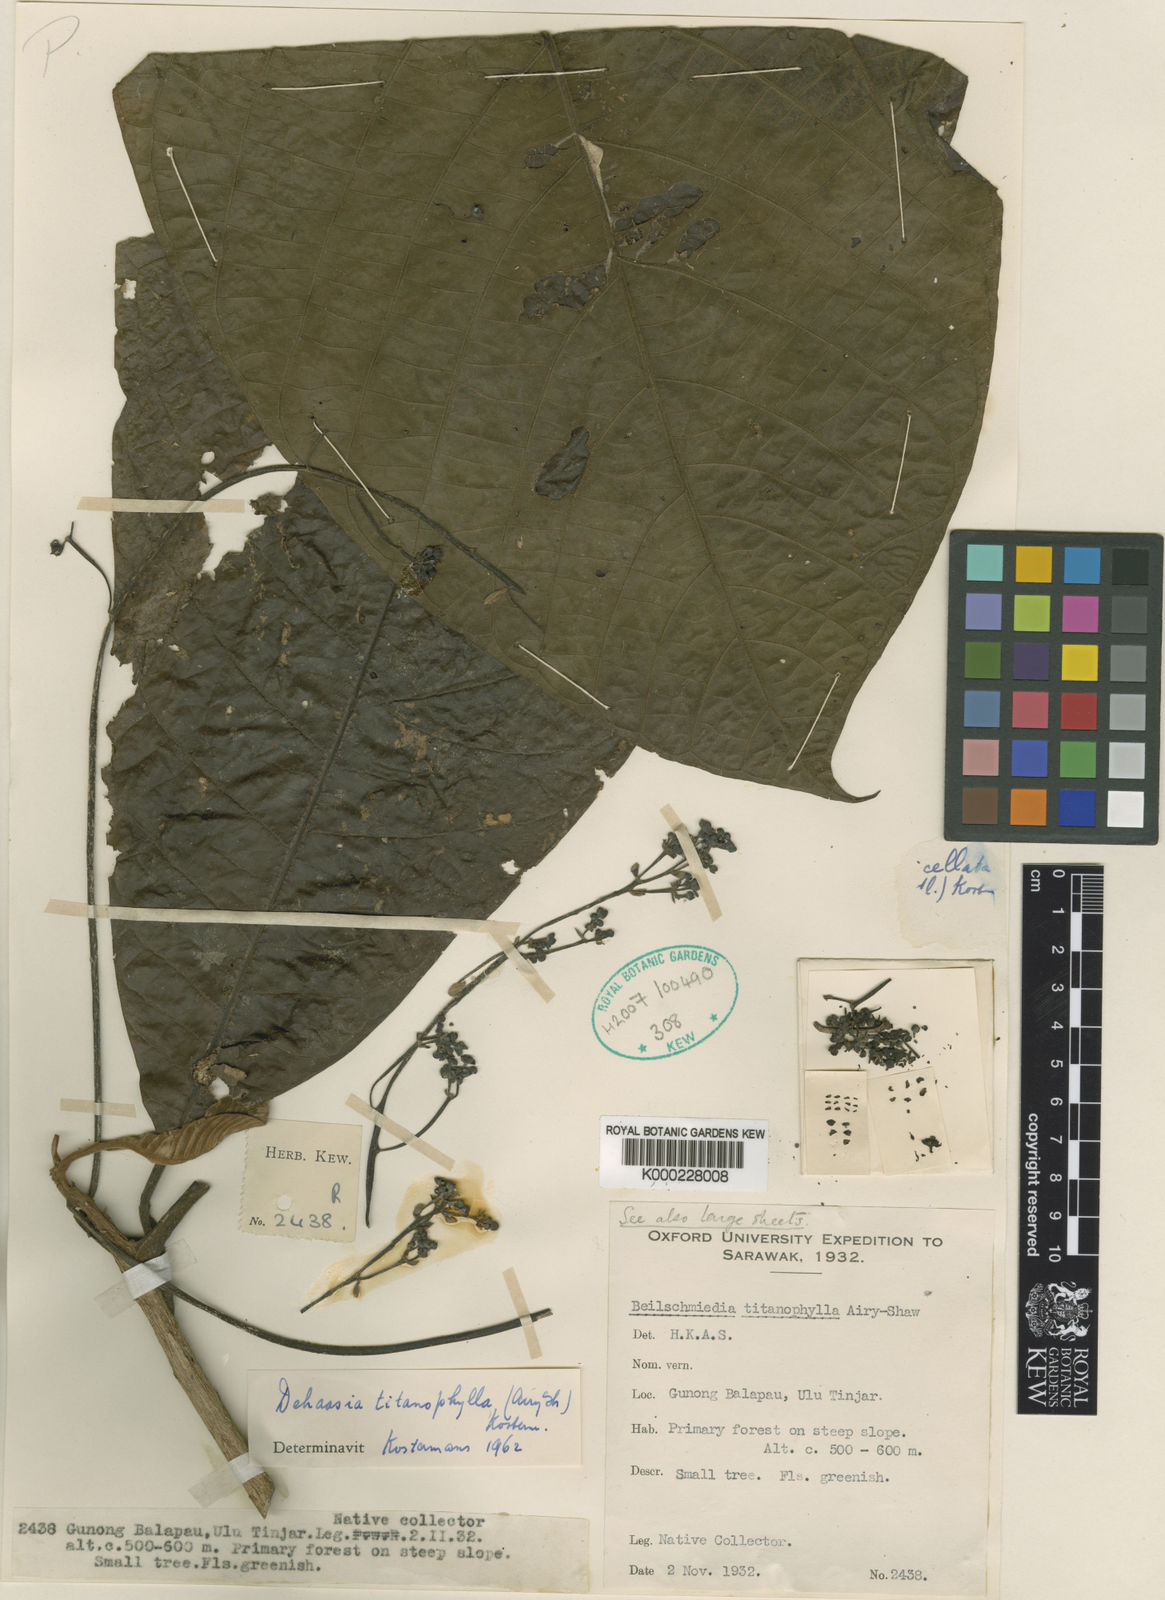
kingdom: Plantae
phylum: Tracheophyta
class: Magnoliopsida
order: Laurales
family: Lauraceae
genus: Dehaasia
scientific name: Dehaasia titanophylla
